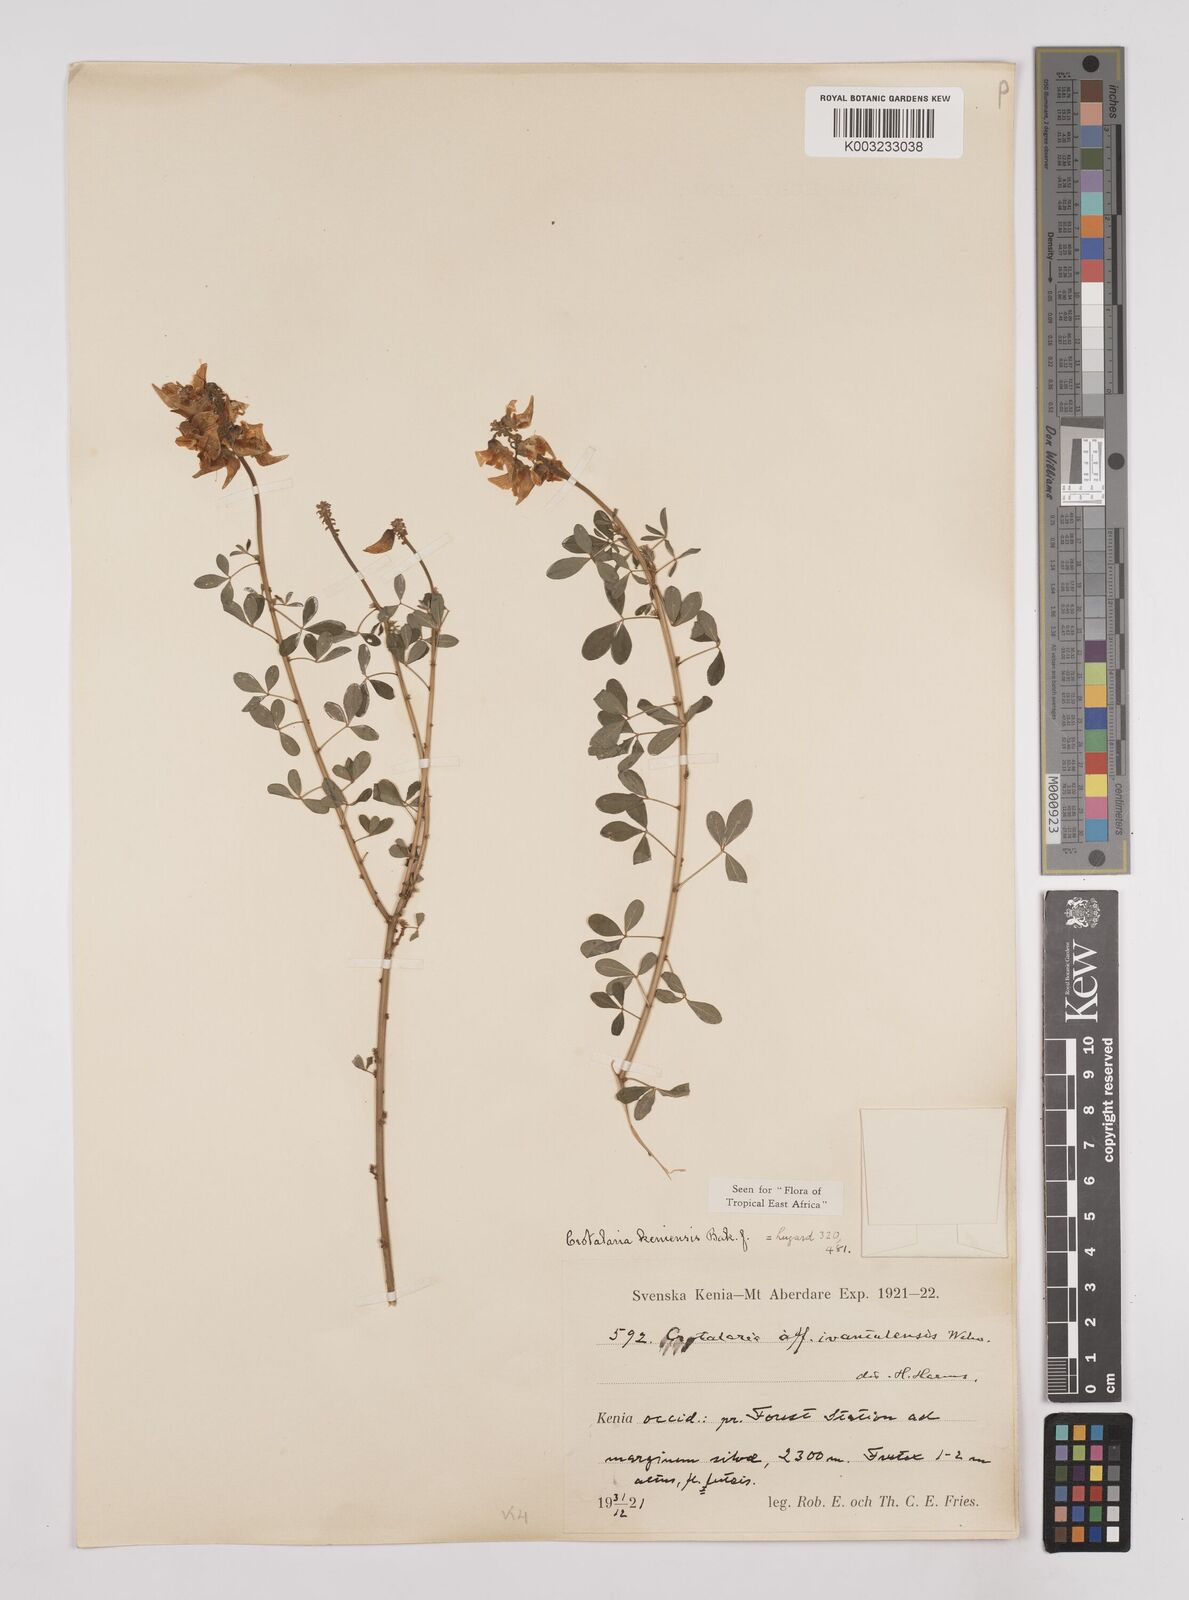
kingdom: Plantae
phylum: Tracheophyta
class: Magnoliopsida
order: Fabales
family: Fabaceae
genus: Crotalaria
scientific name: Crotalaria keniensis
